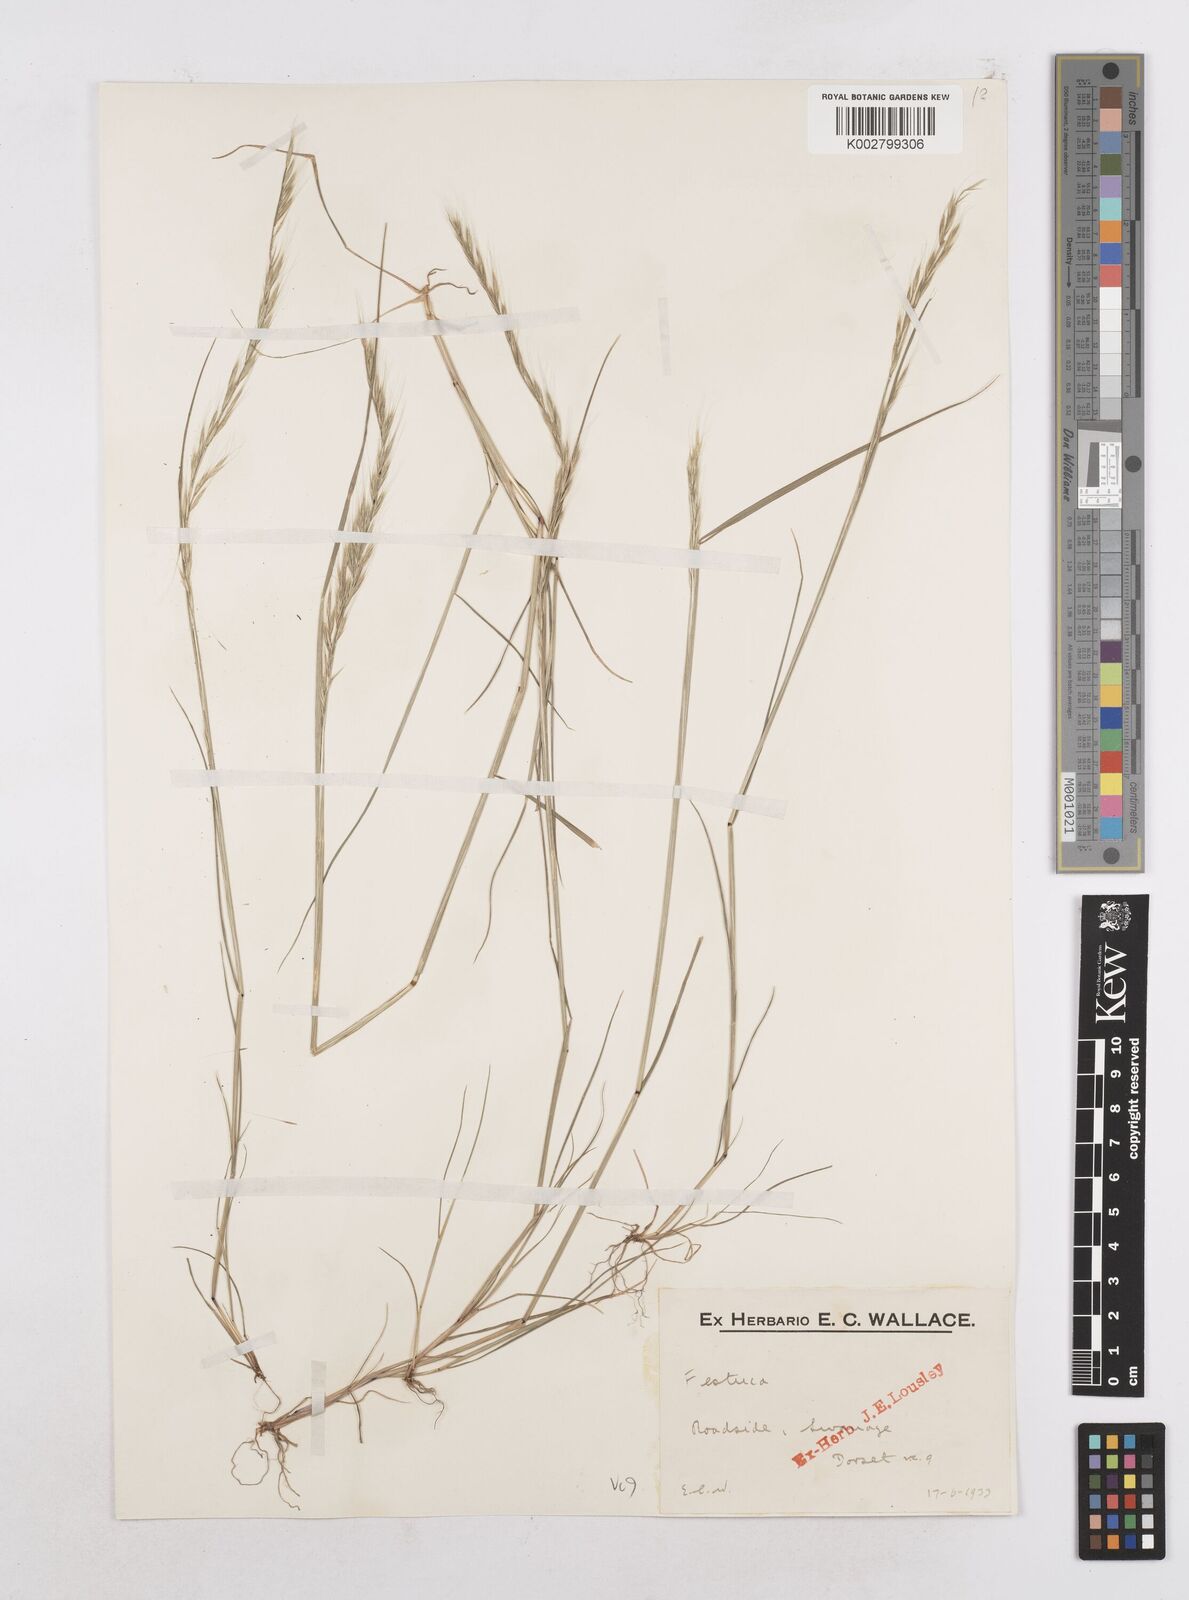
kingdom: Plantae
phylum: Tracheophyta
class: Liliopsida
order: Poales
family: Poaceae
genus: Festuca
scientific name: Festuca myuros
